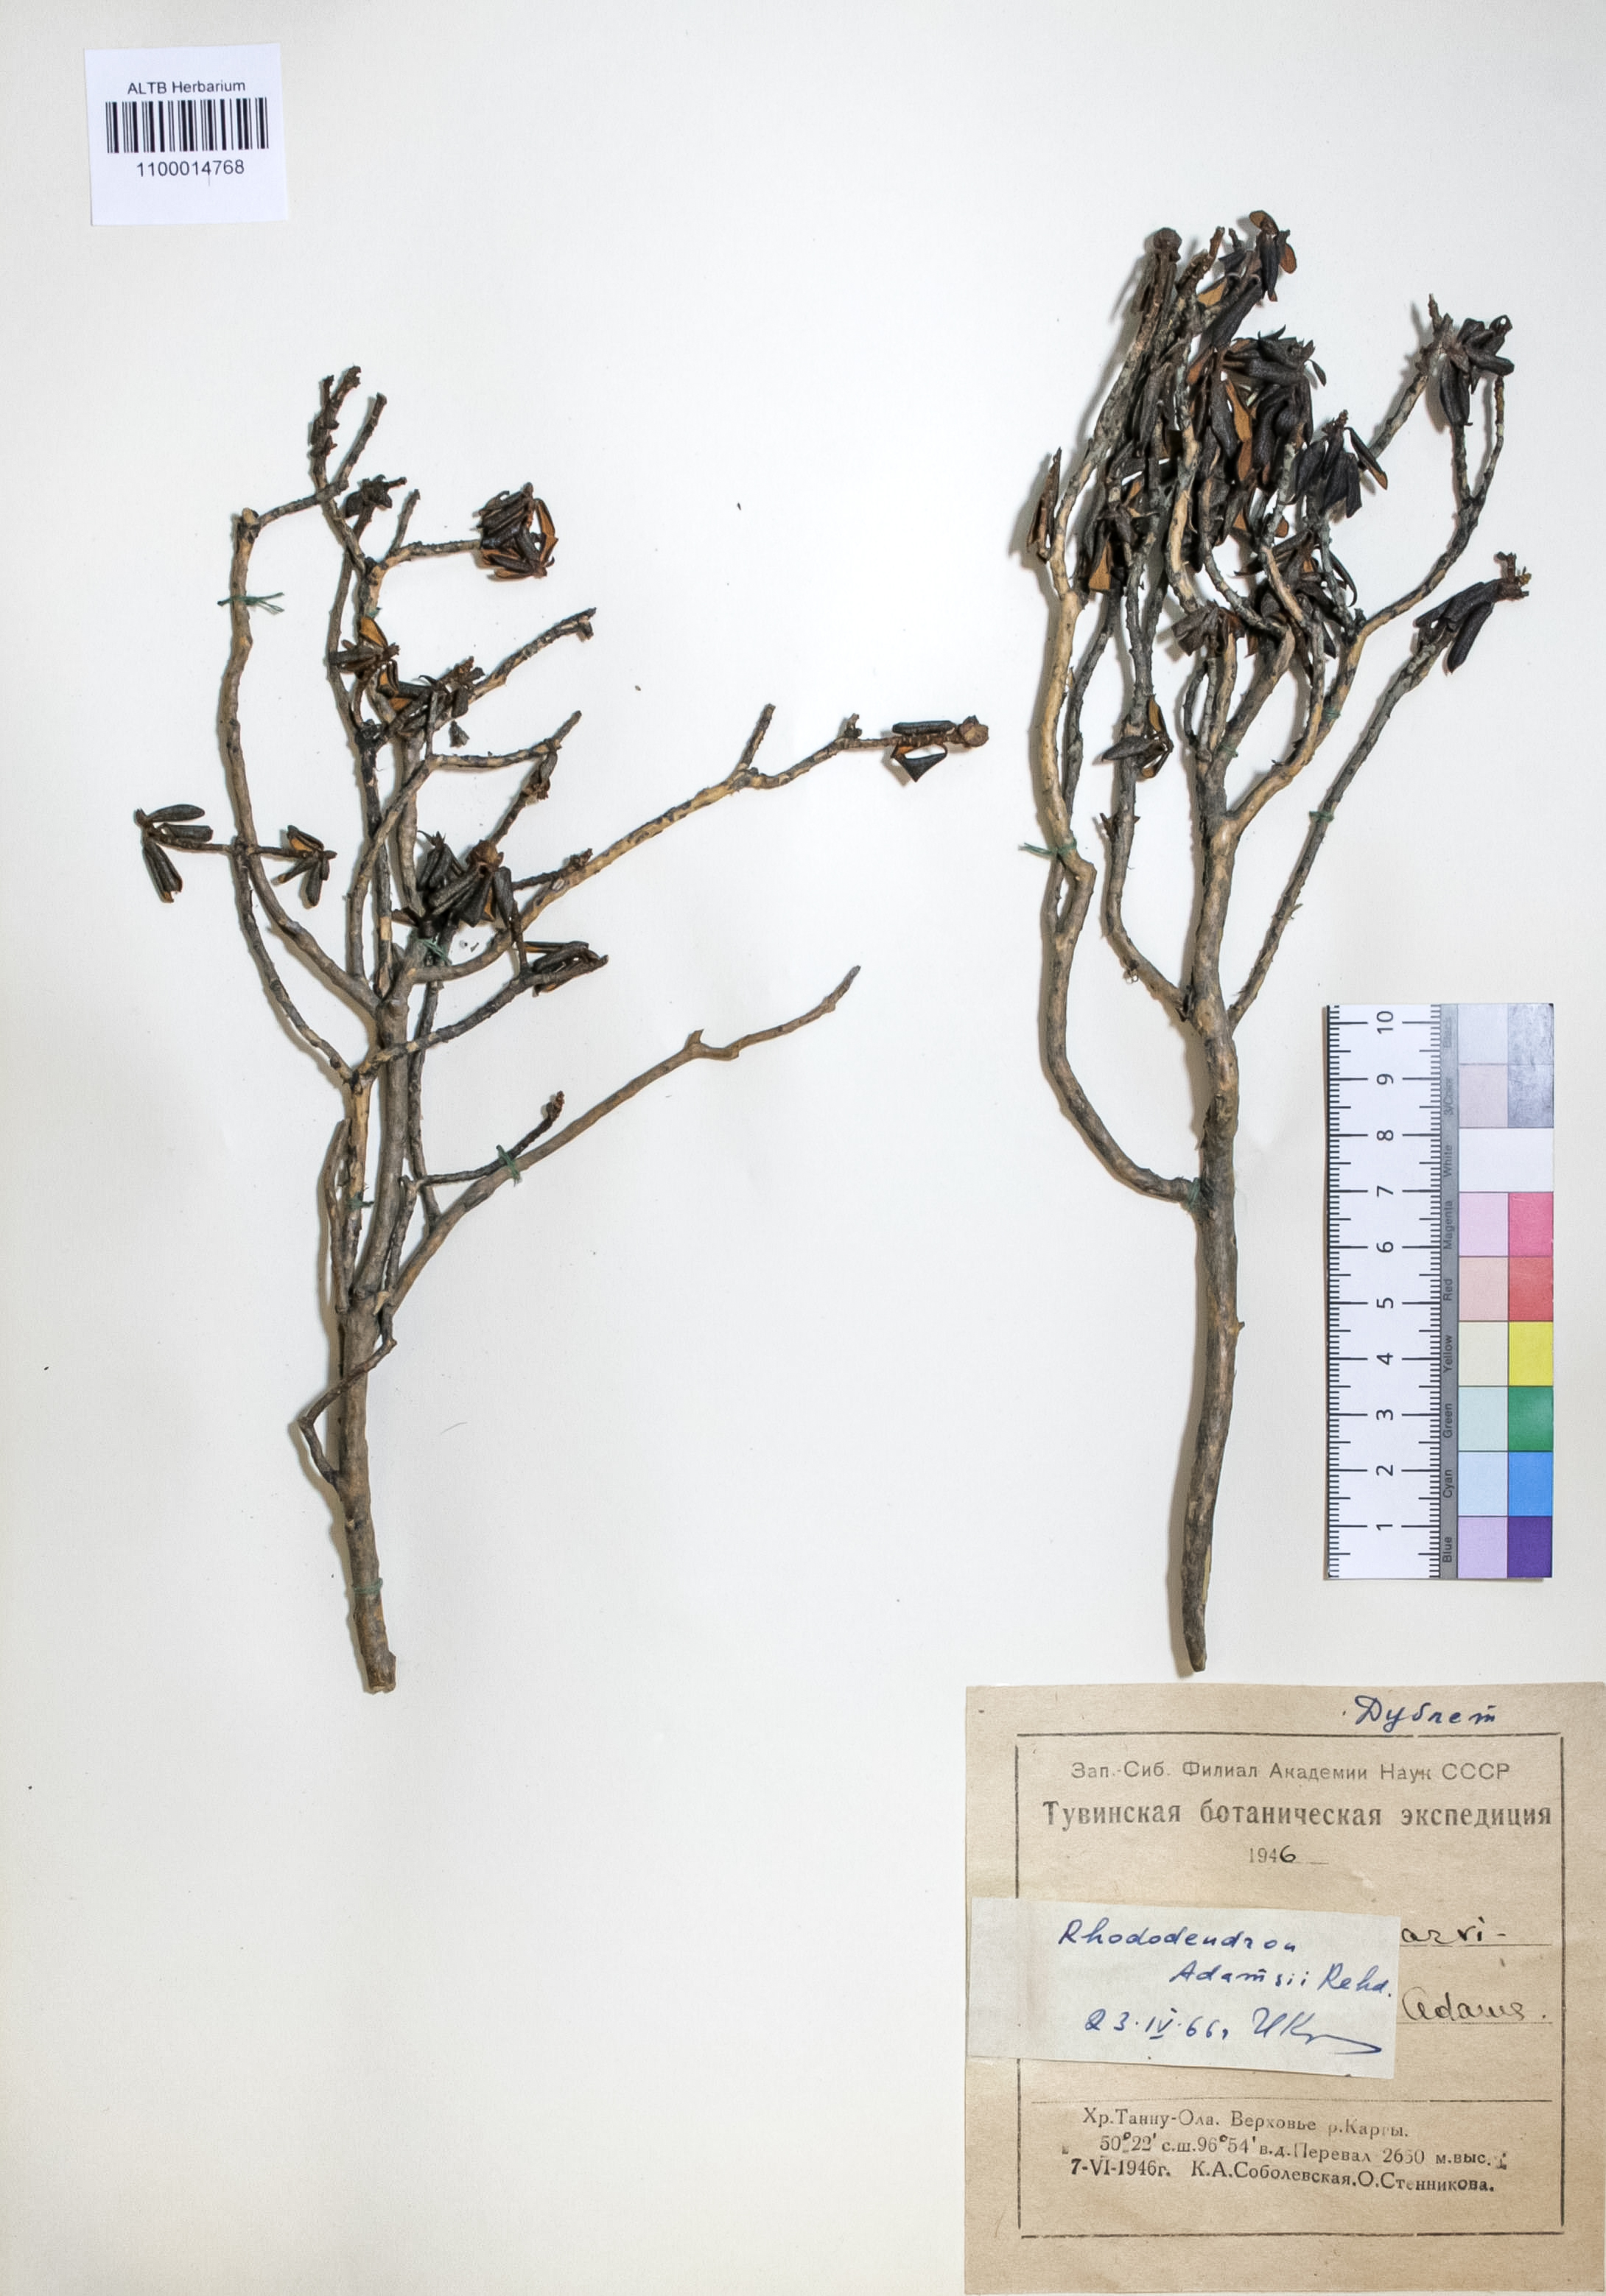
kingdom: Plantae
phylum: Tracheophyta
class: Magnoliopsida
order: Ericales
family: Ericaceae
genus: Rhododendron
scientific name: Rhododendron adamsii
